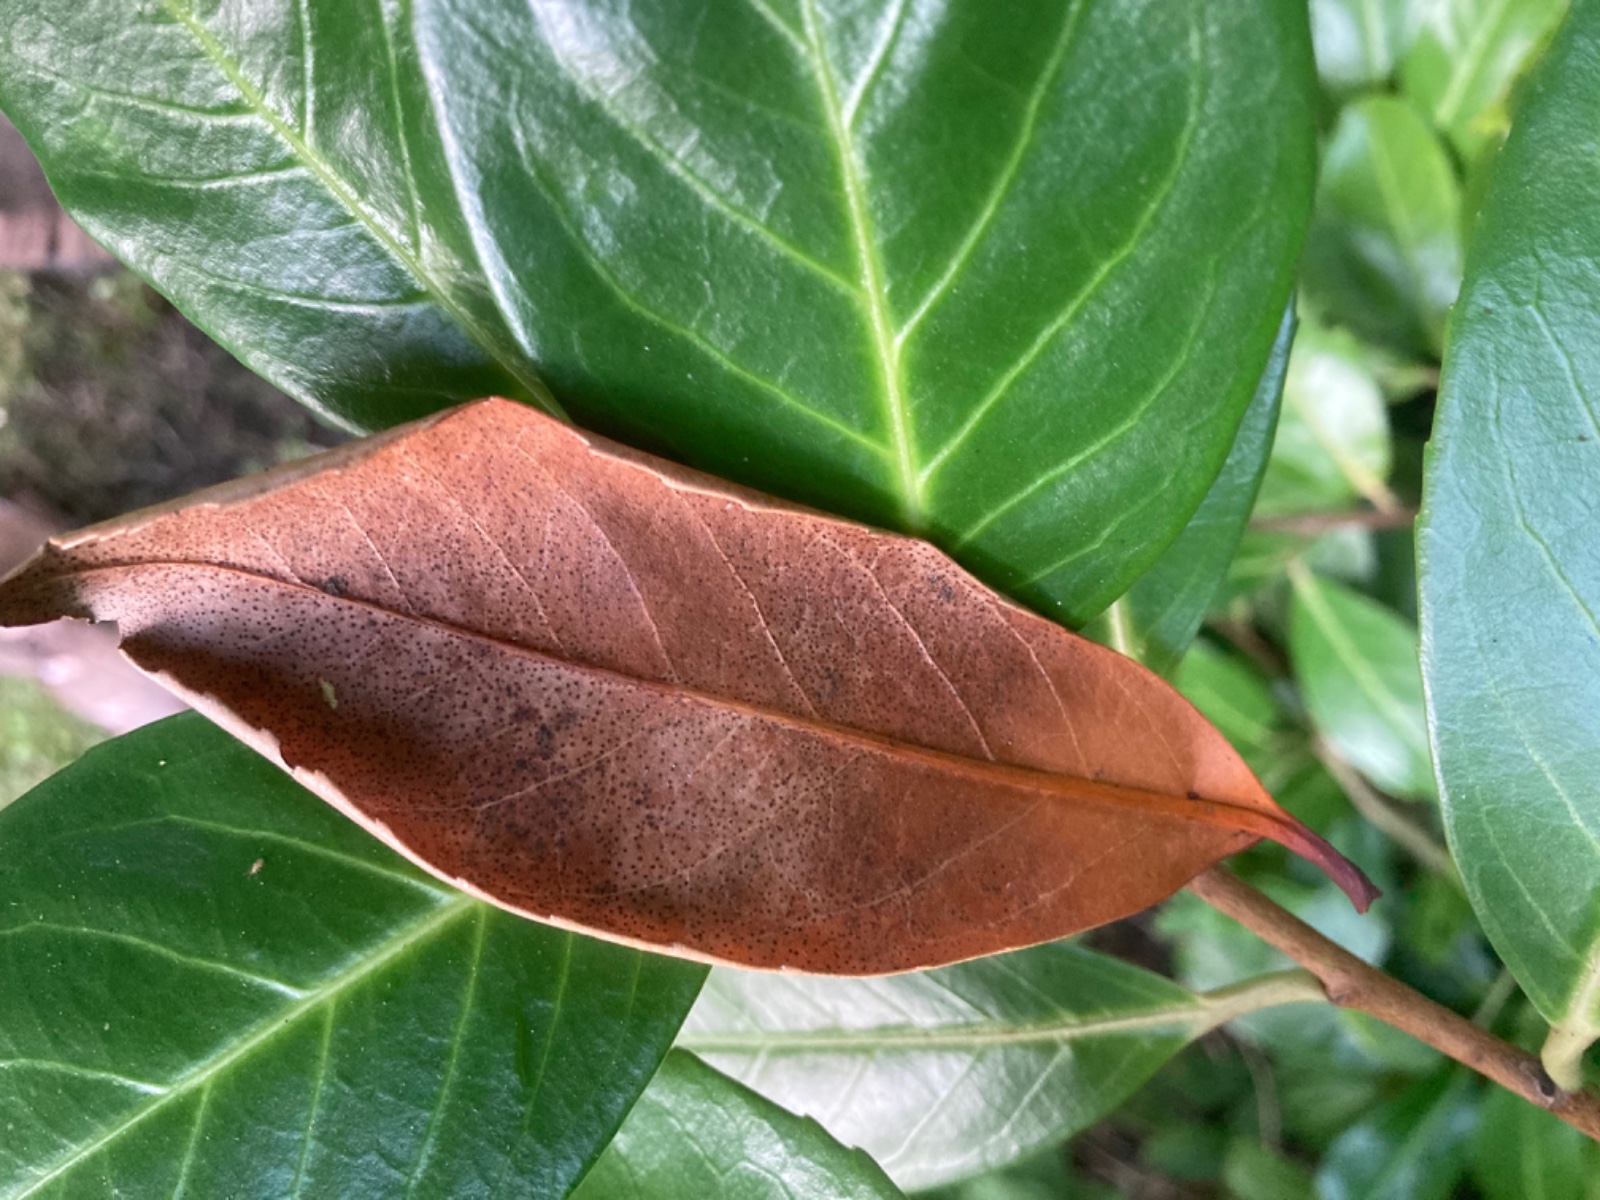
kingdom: Fungi
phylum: Ascomycota
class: Leotiomycetes
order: Helotiales
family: Cenangiaceae
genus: Trochila
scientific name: Trochila laurocerasi
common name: kirsebær-lågskive
